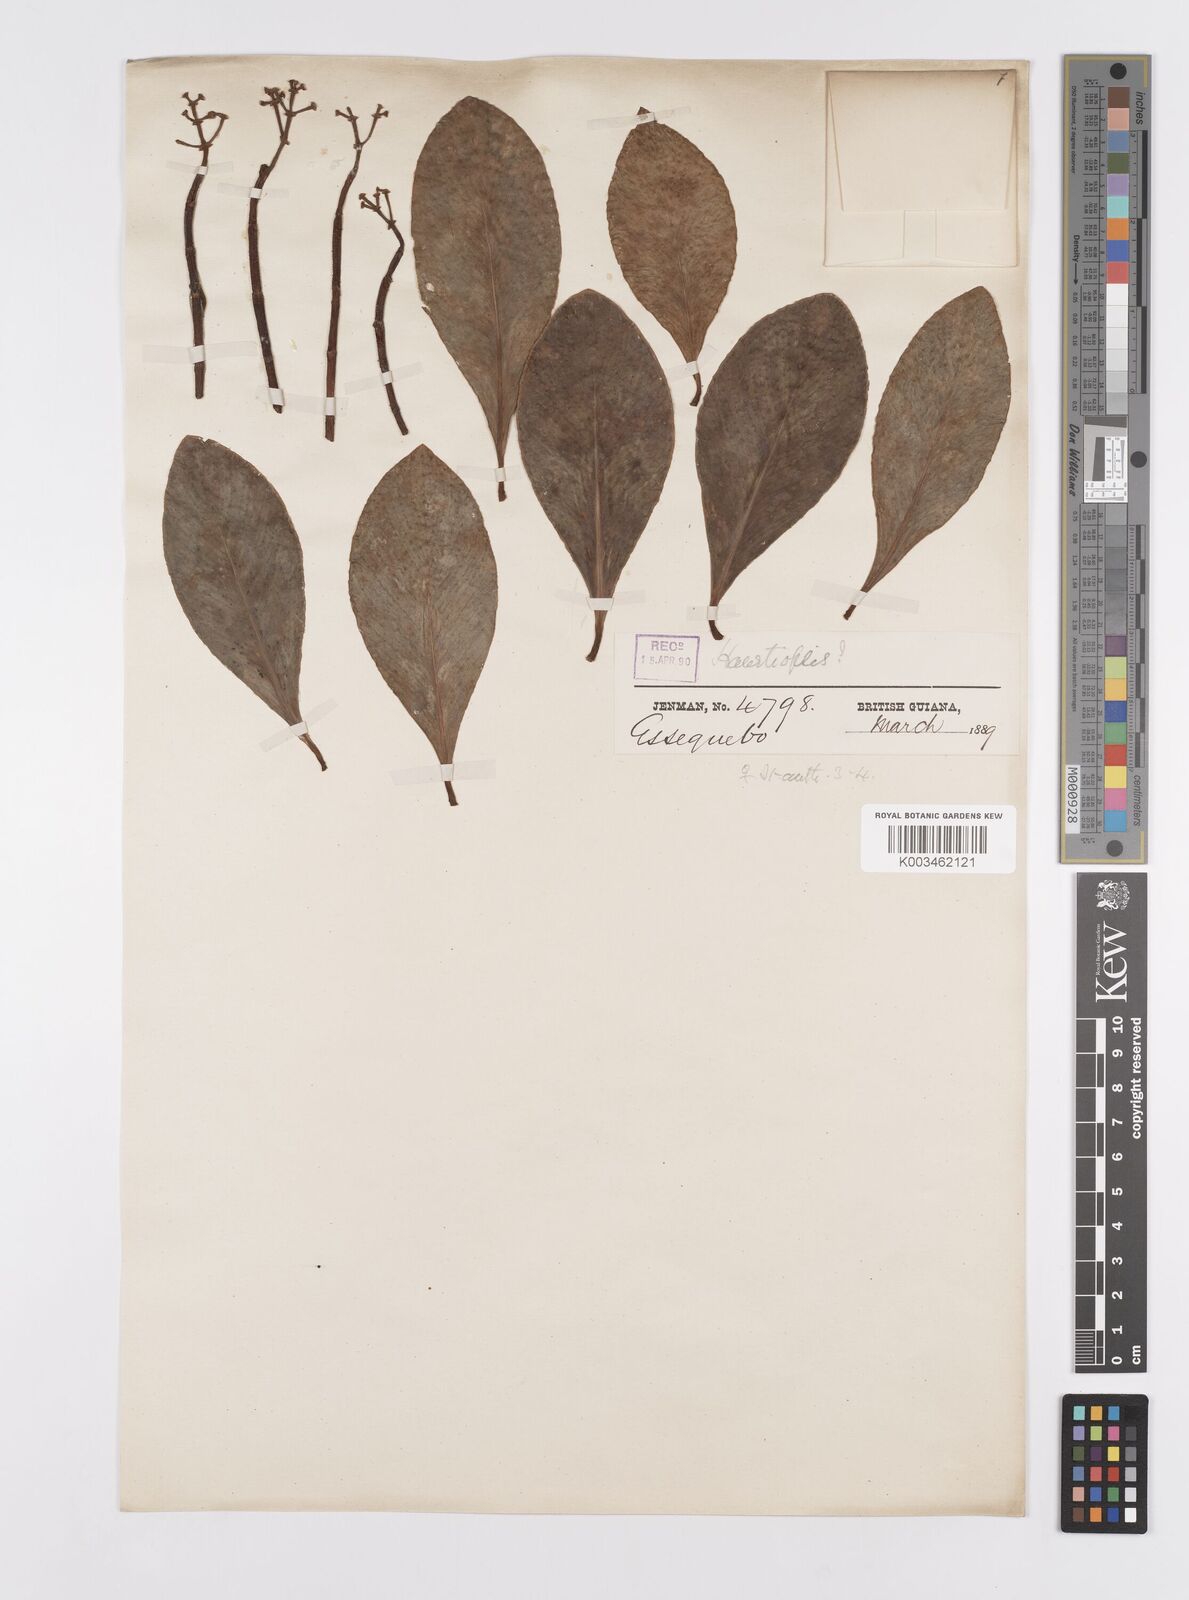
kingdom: Plantae
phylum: Tracheophyta
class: Magnoliopsida
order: Malpighiales
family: Clusiaceae
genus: Clusia
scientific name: Clusia flavida
